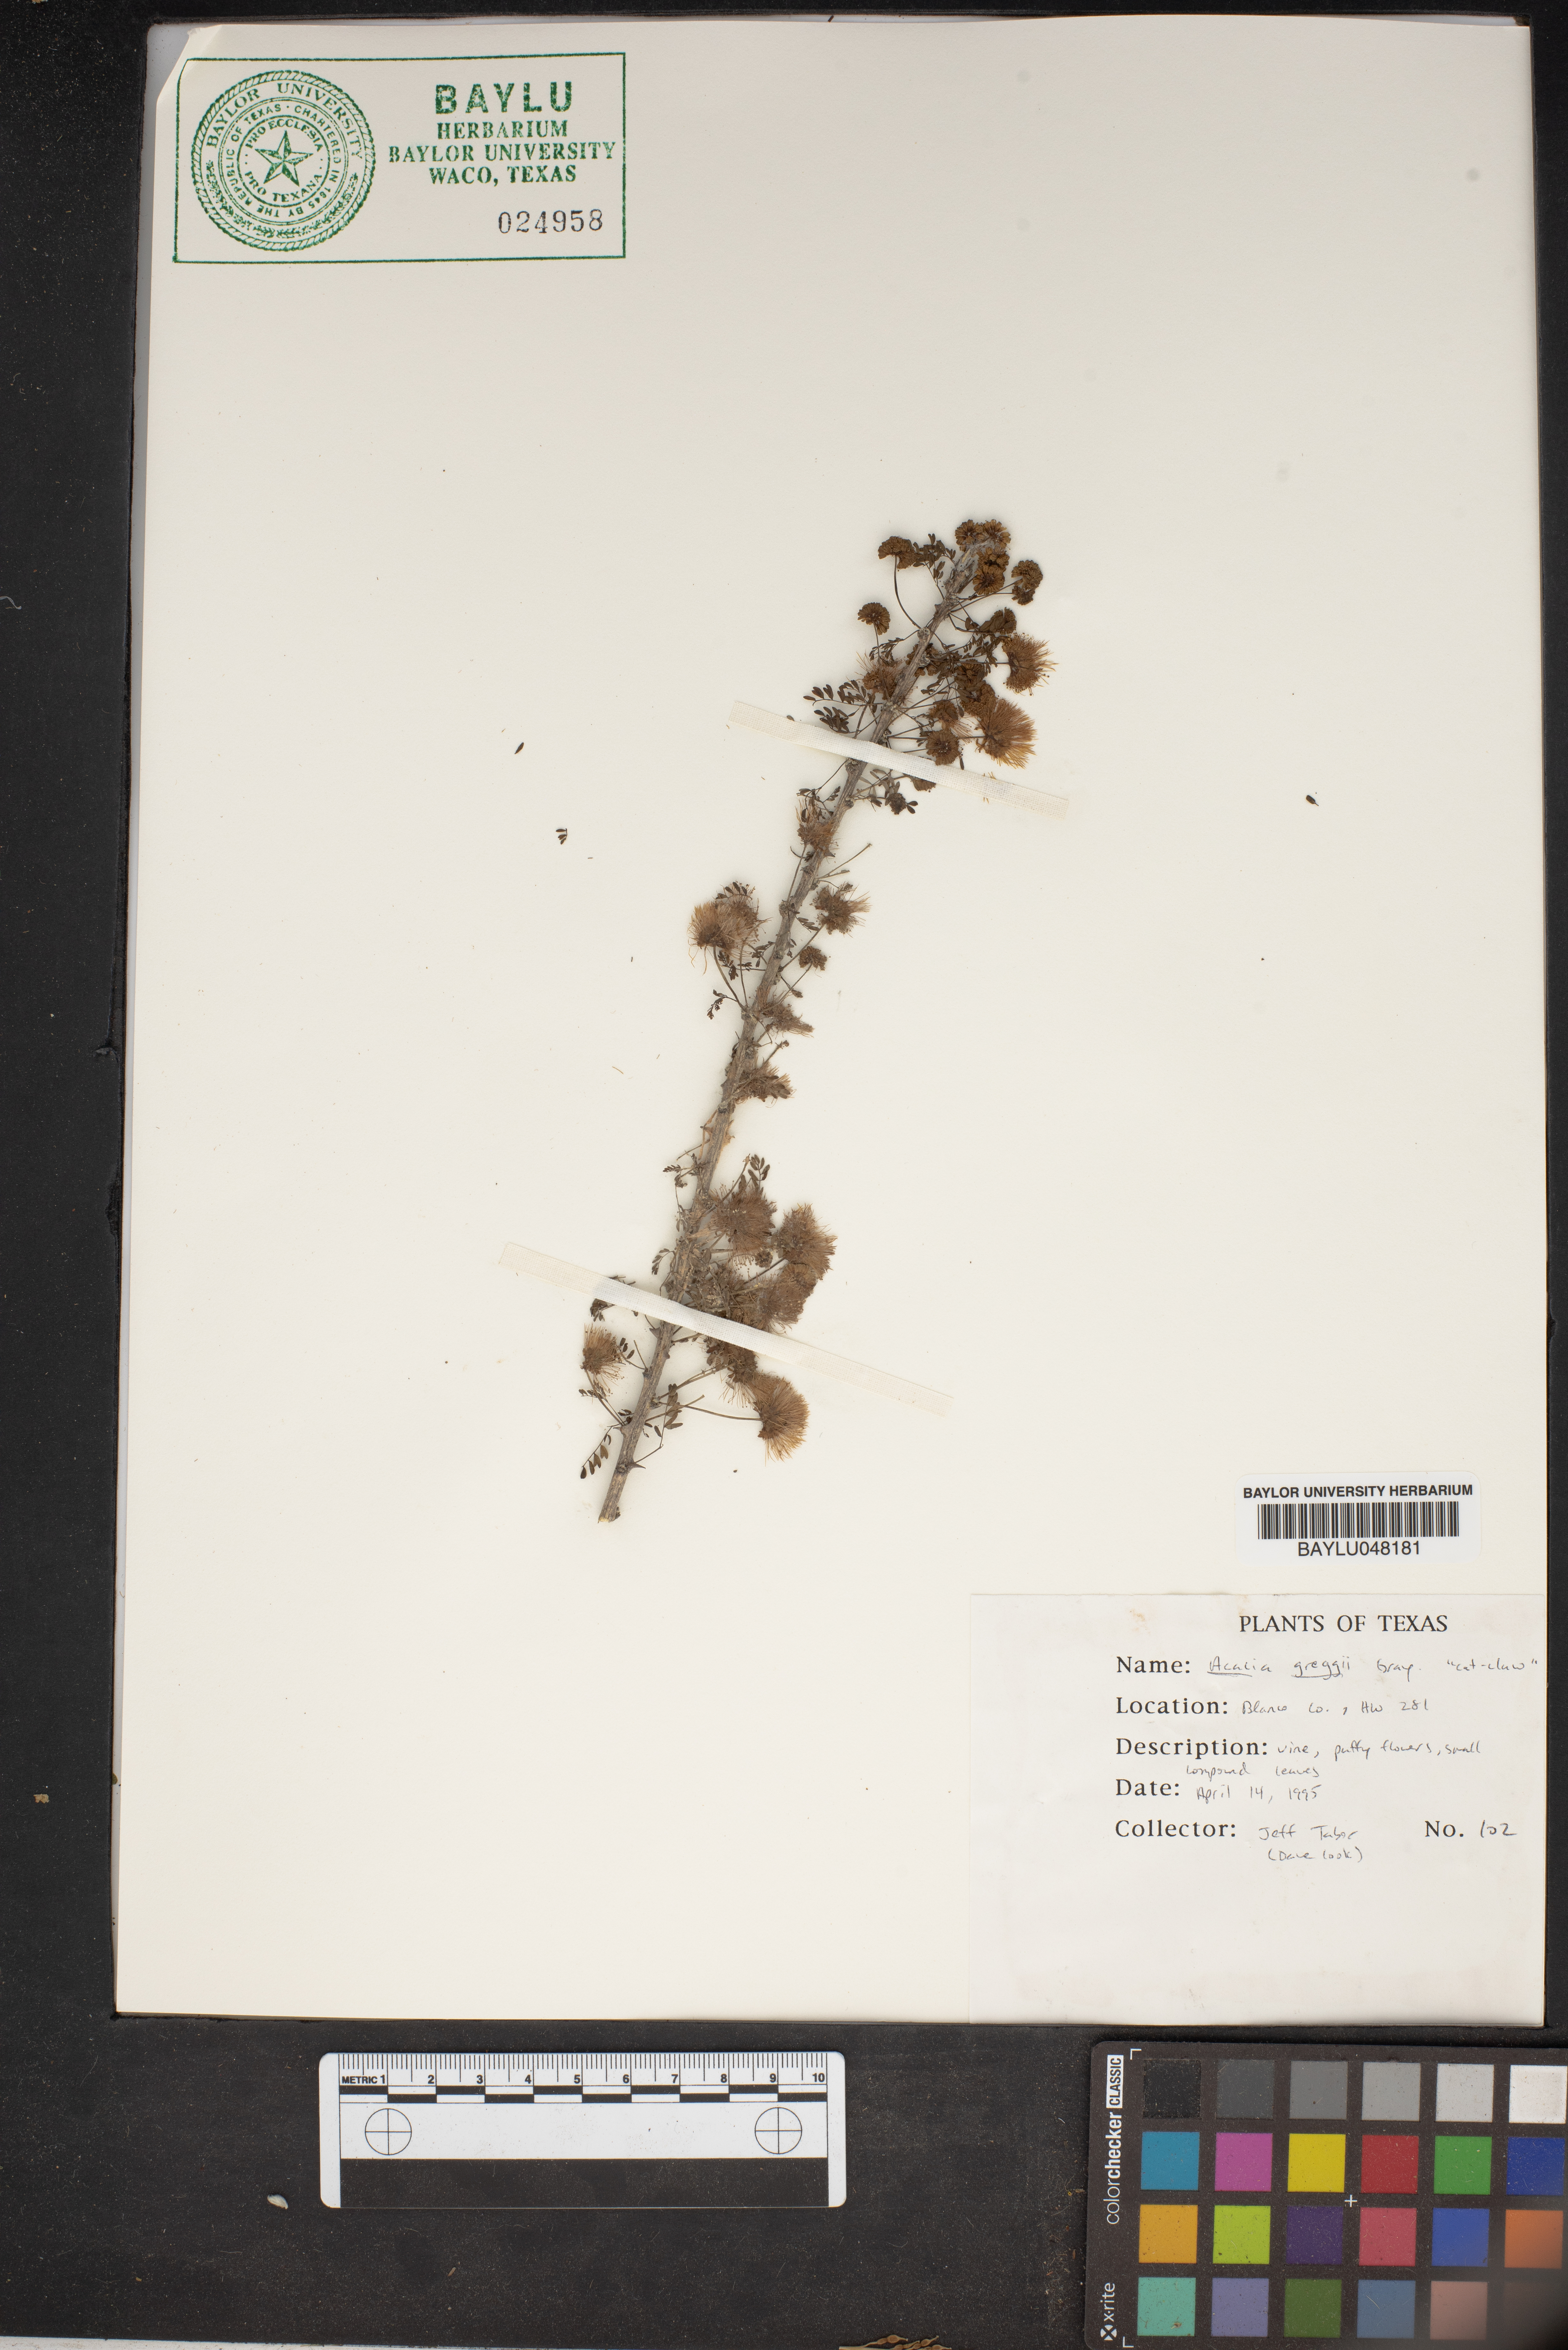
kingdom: Plantae
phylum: Tracheophyta
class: Magnoliopsida
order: Fabales
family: Fabaceae
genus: Senegalia
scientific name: Senegalia greggii
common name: Texas-mimosa
